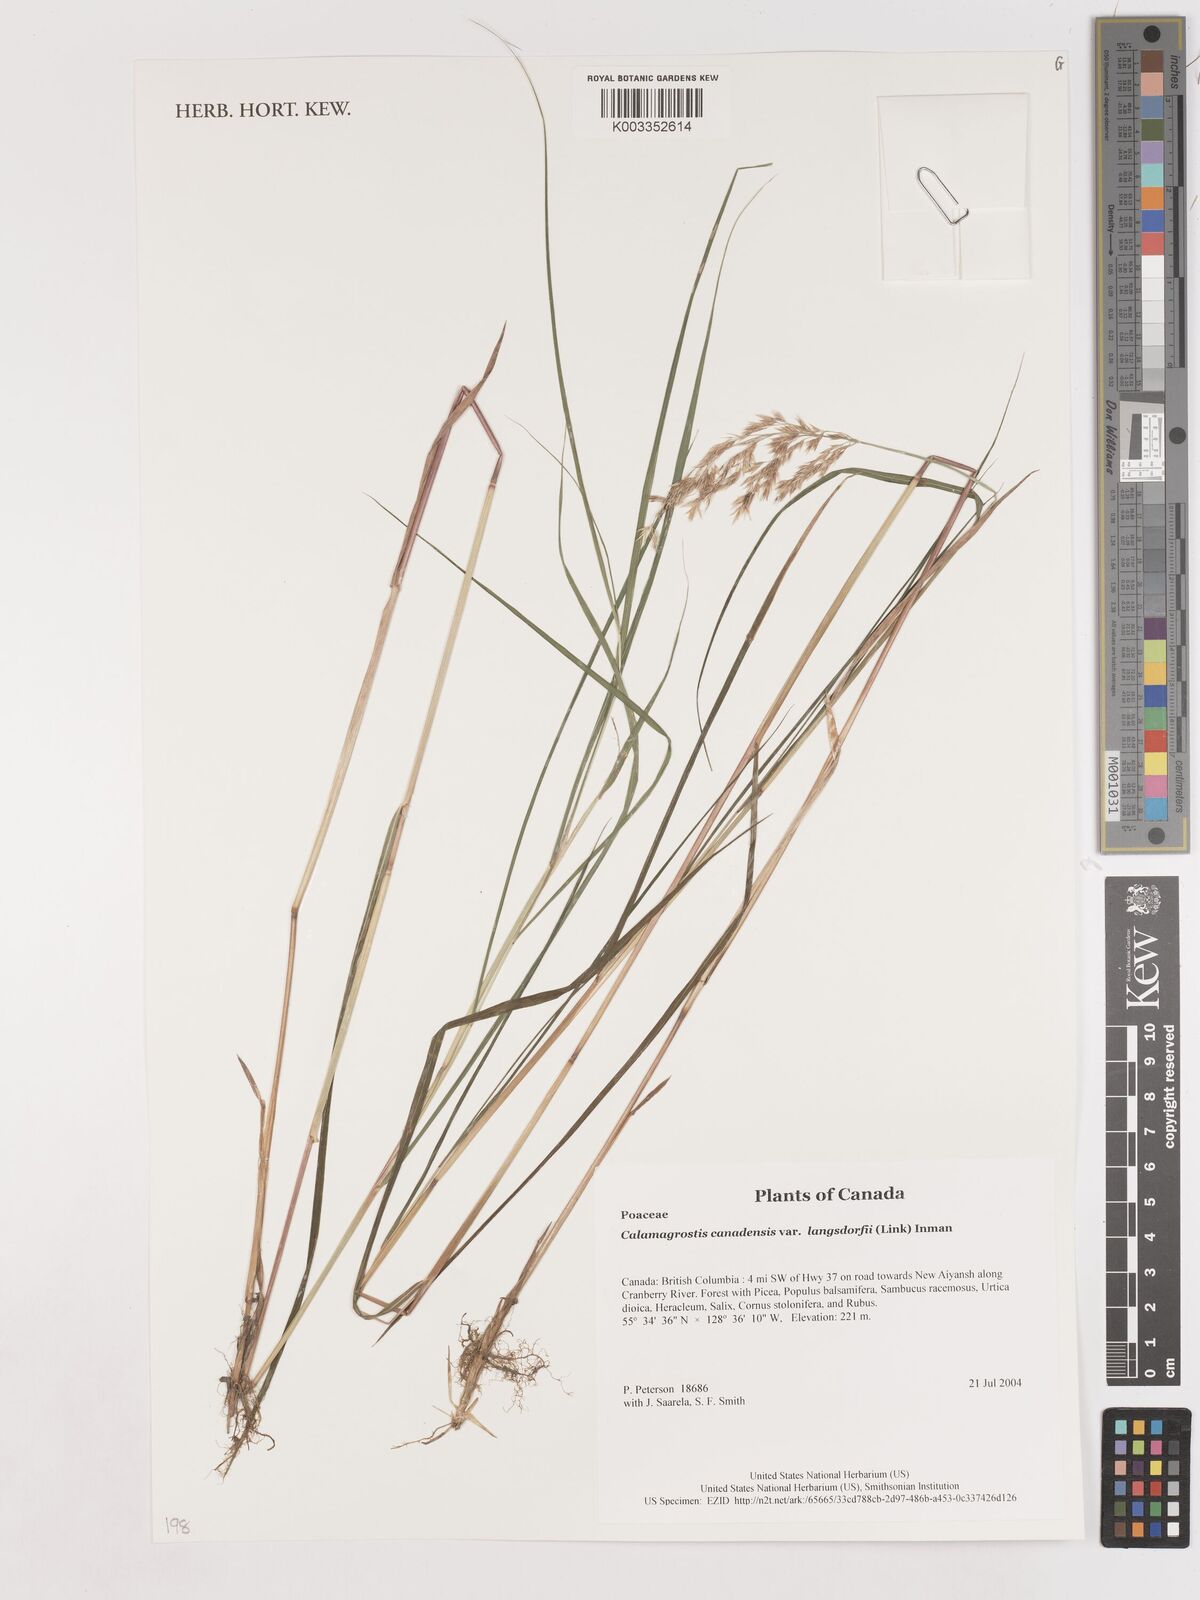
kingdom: Plantae
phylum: Tracheophyta
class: Liliopsida
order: Poales
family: Poaceae
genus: Calamagrostis
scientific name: Calamagrostis canadensis
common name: Canada bluejoint
